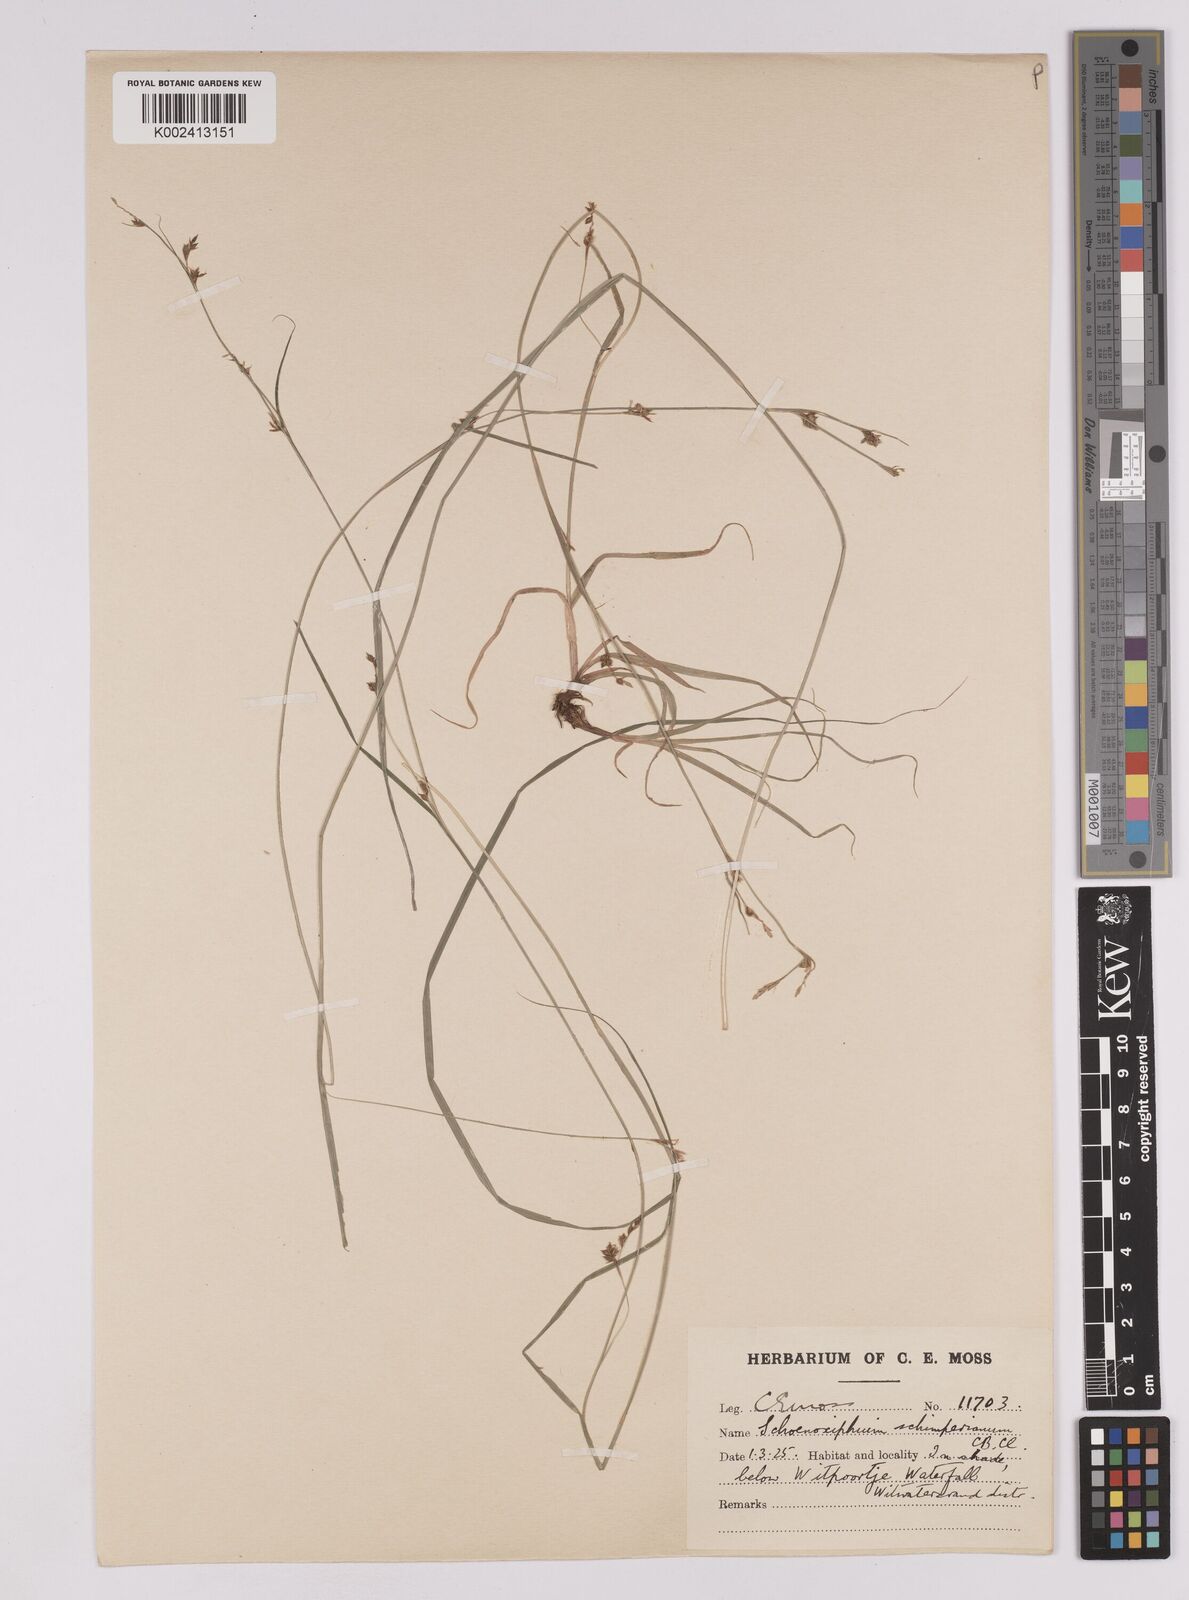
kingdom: Plantae
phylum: Tracheophyta
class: Liliopsida
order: Poales
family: Cyperaceae
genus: Carex
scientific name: Carex spartea
